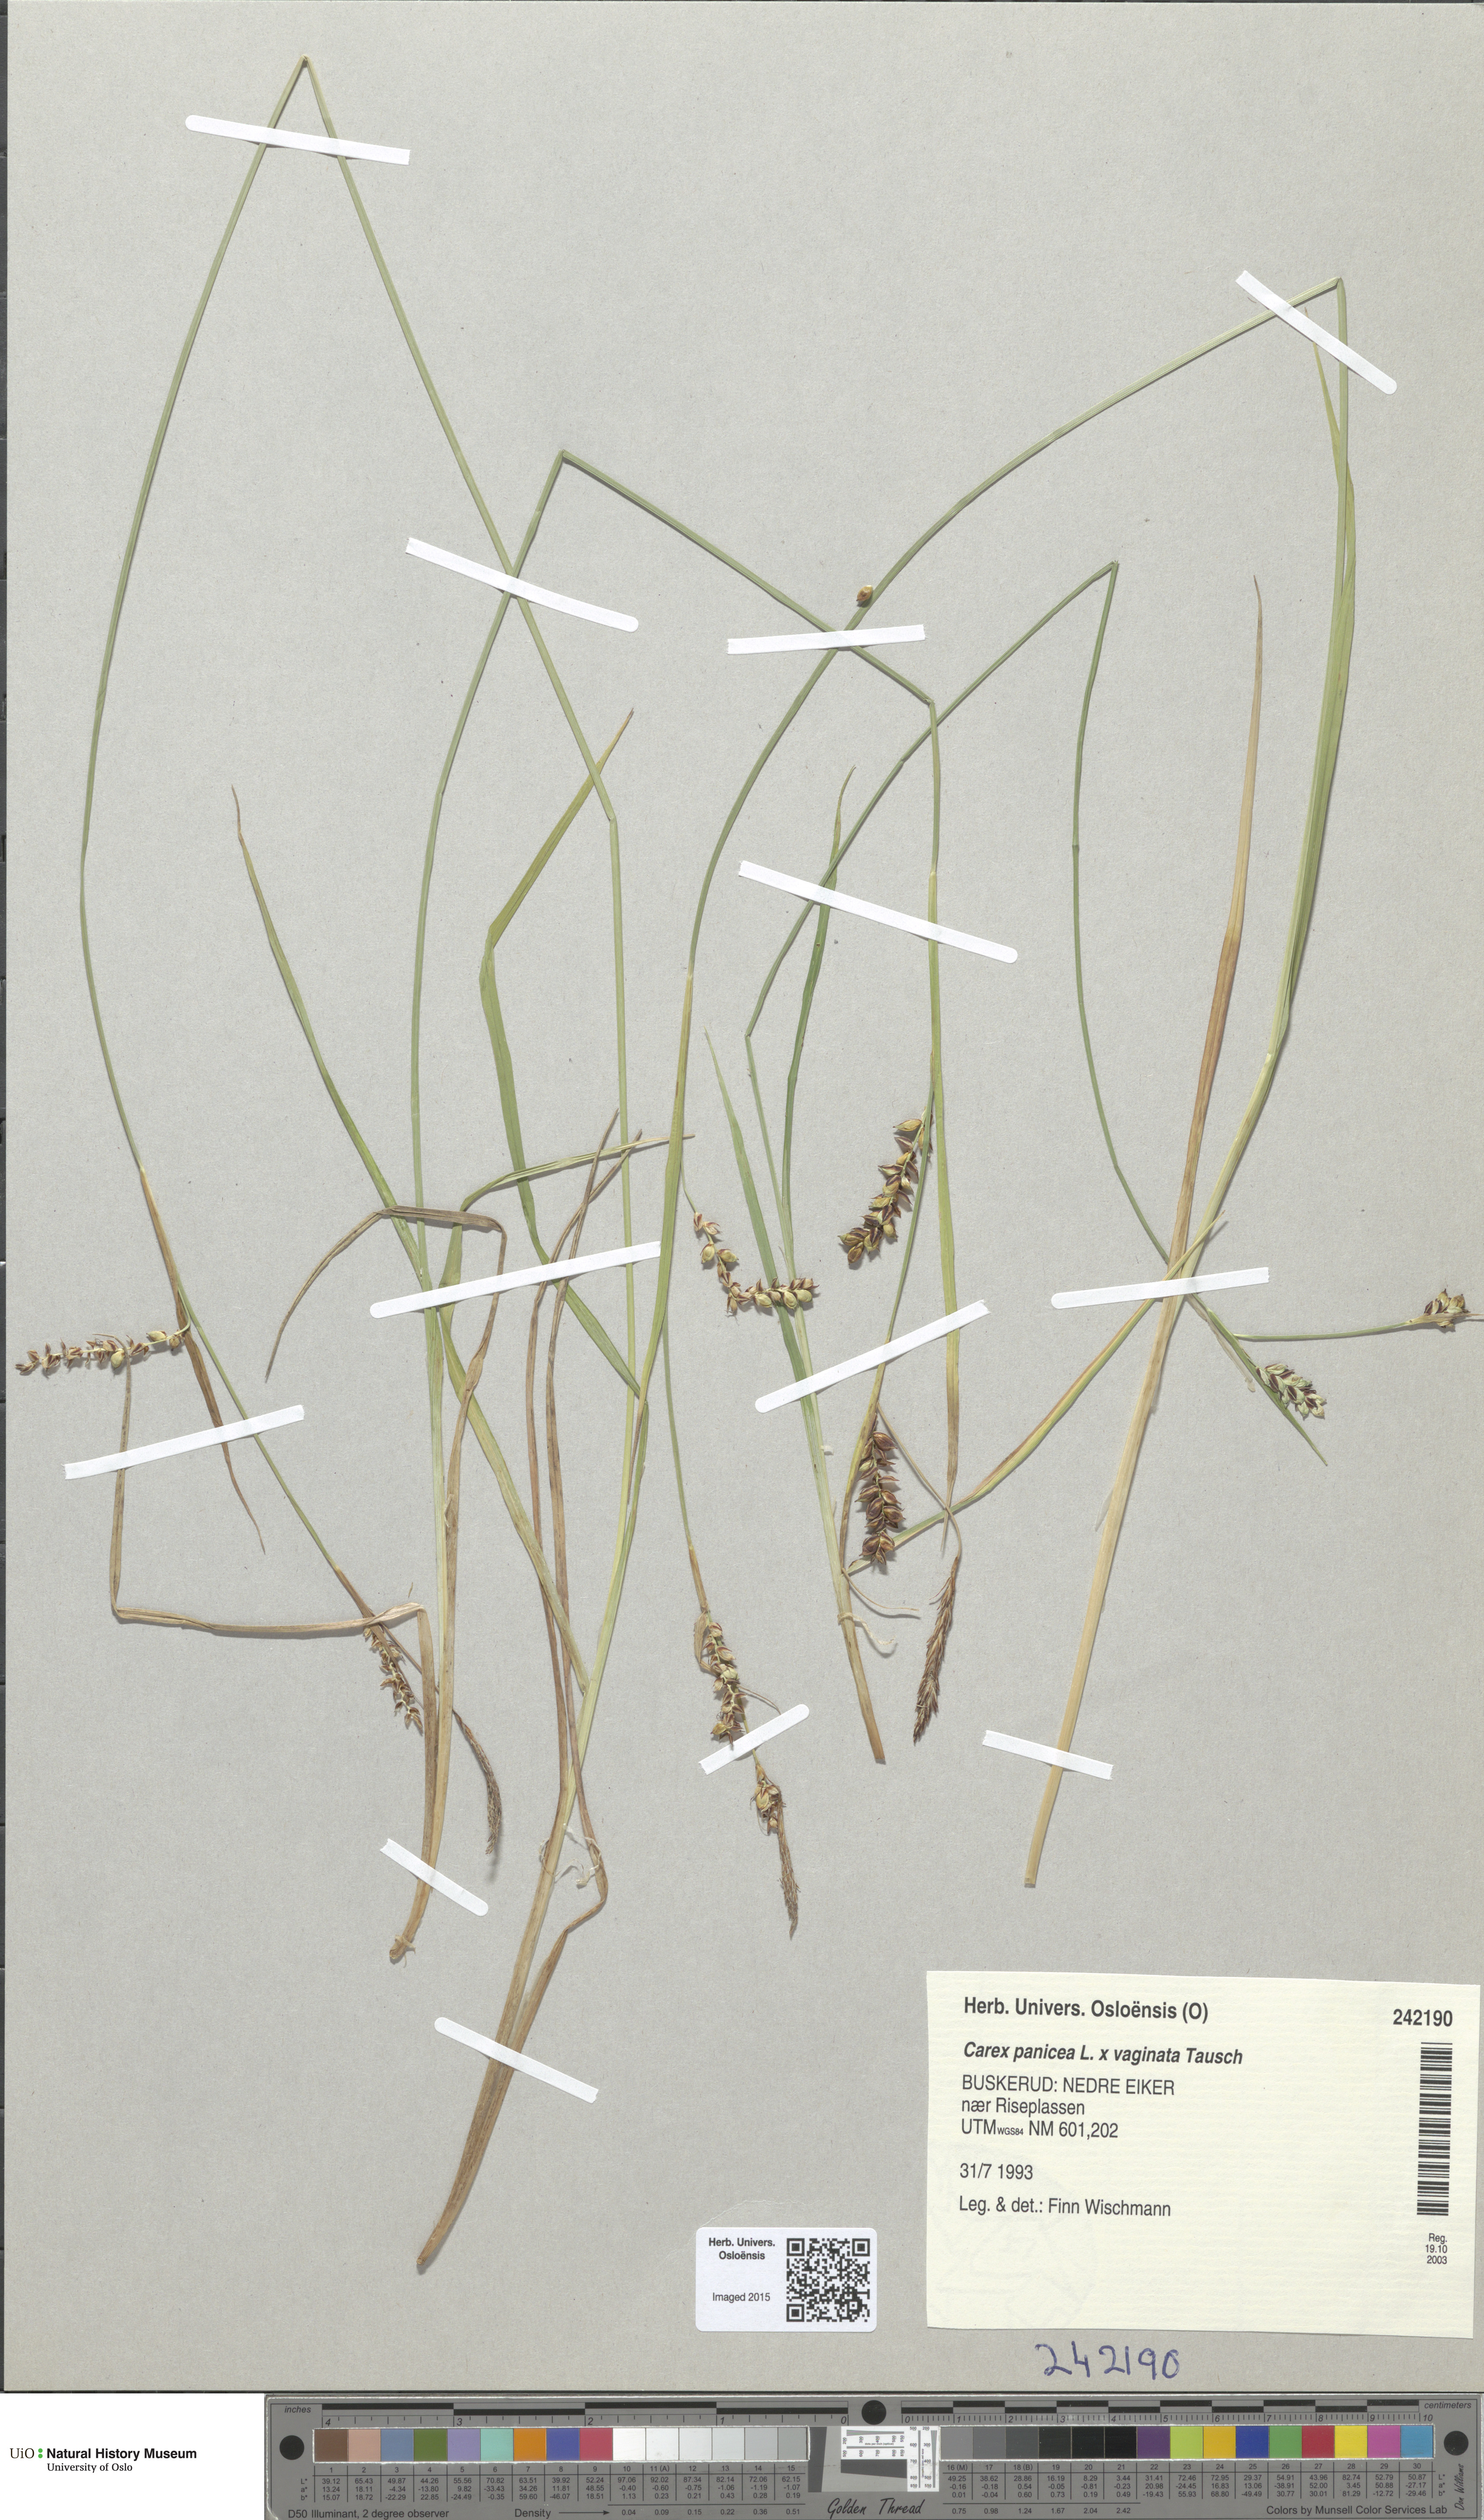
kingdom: Plantae
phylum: Tracheophyta
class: Liliopsida
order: Poales
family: Cyperaceae
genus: Carex
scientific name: Carex
